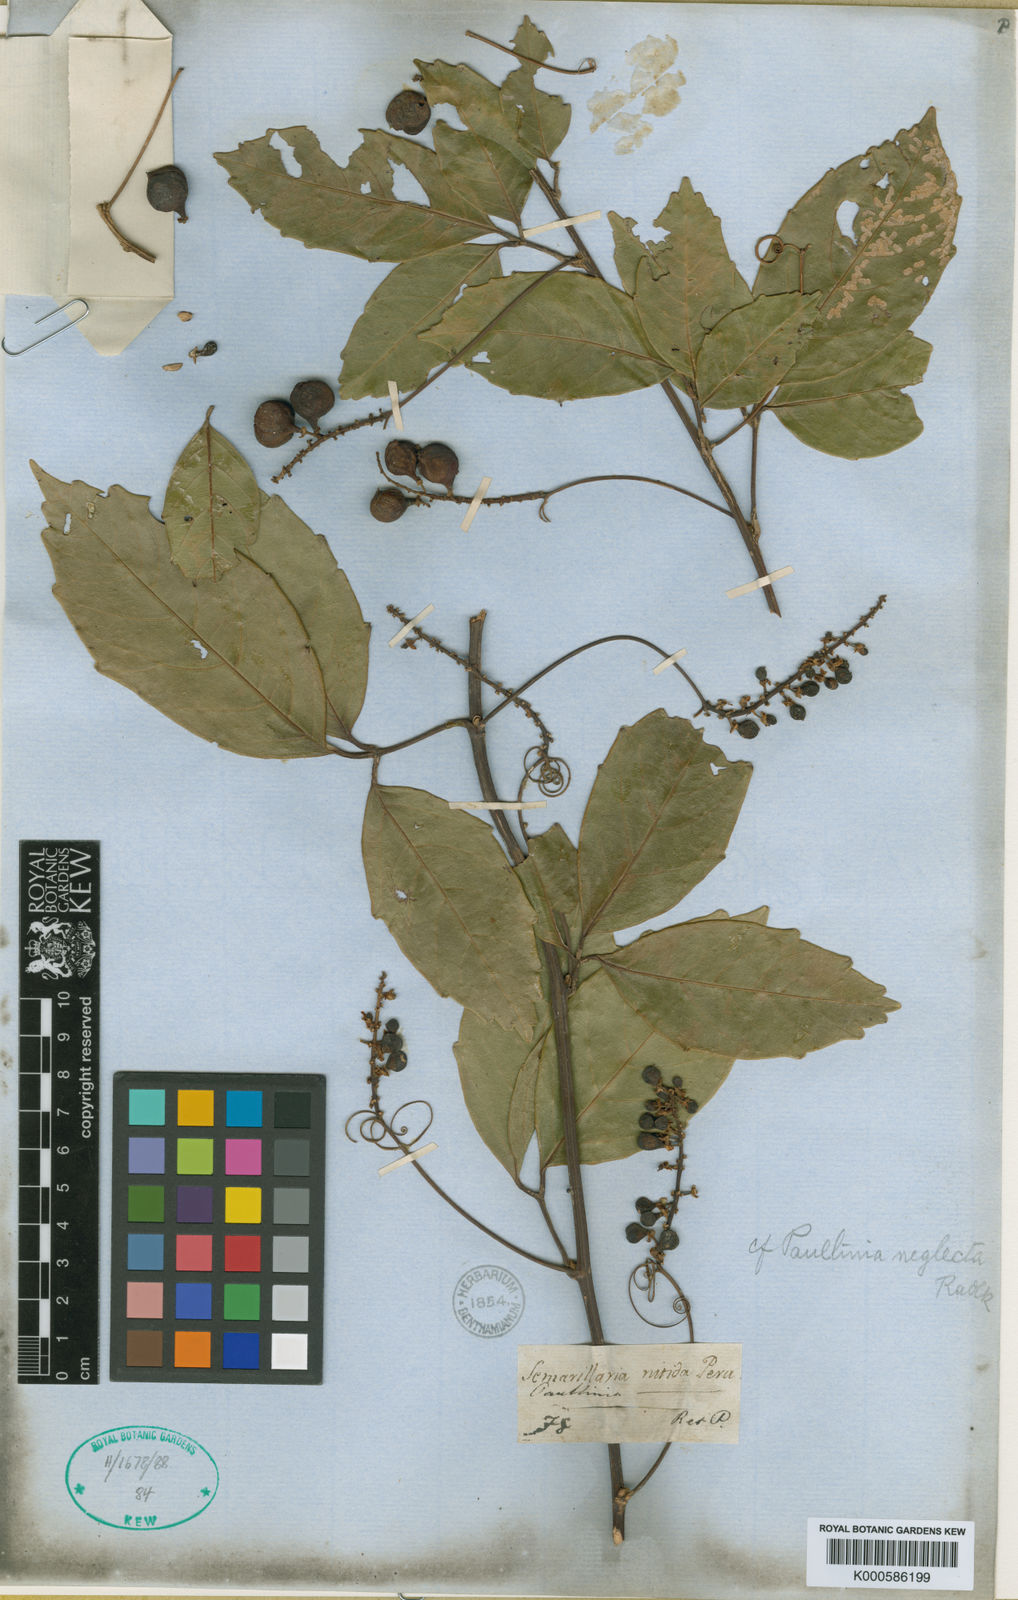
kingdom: Plantae
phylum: Tracheophyta
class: Magnoliopsida
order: Sapindales
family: Sapindaceae
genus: Paullinia
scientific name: Paullinia elegans
